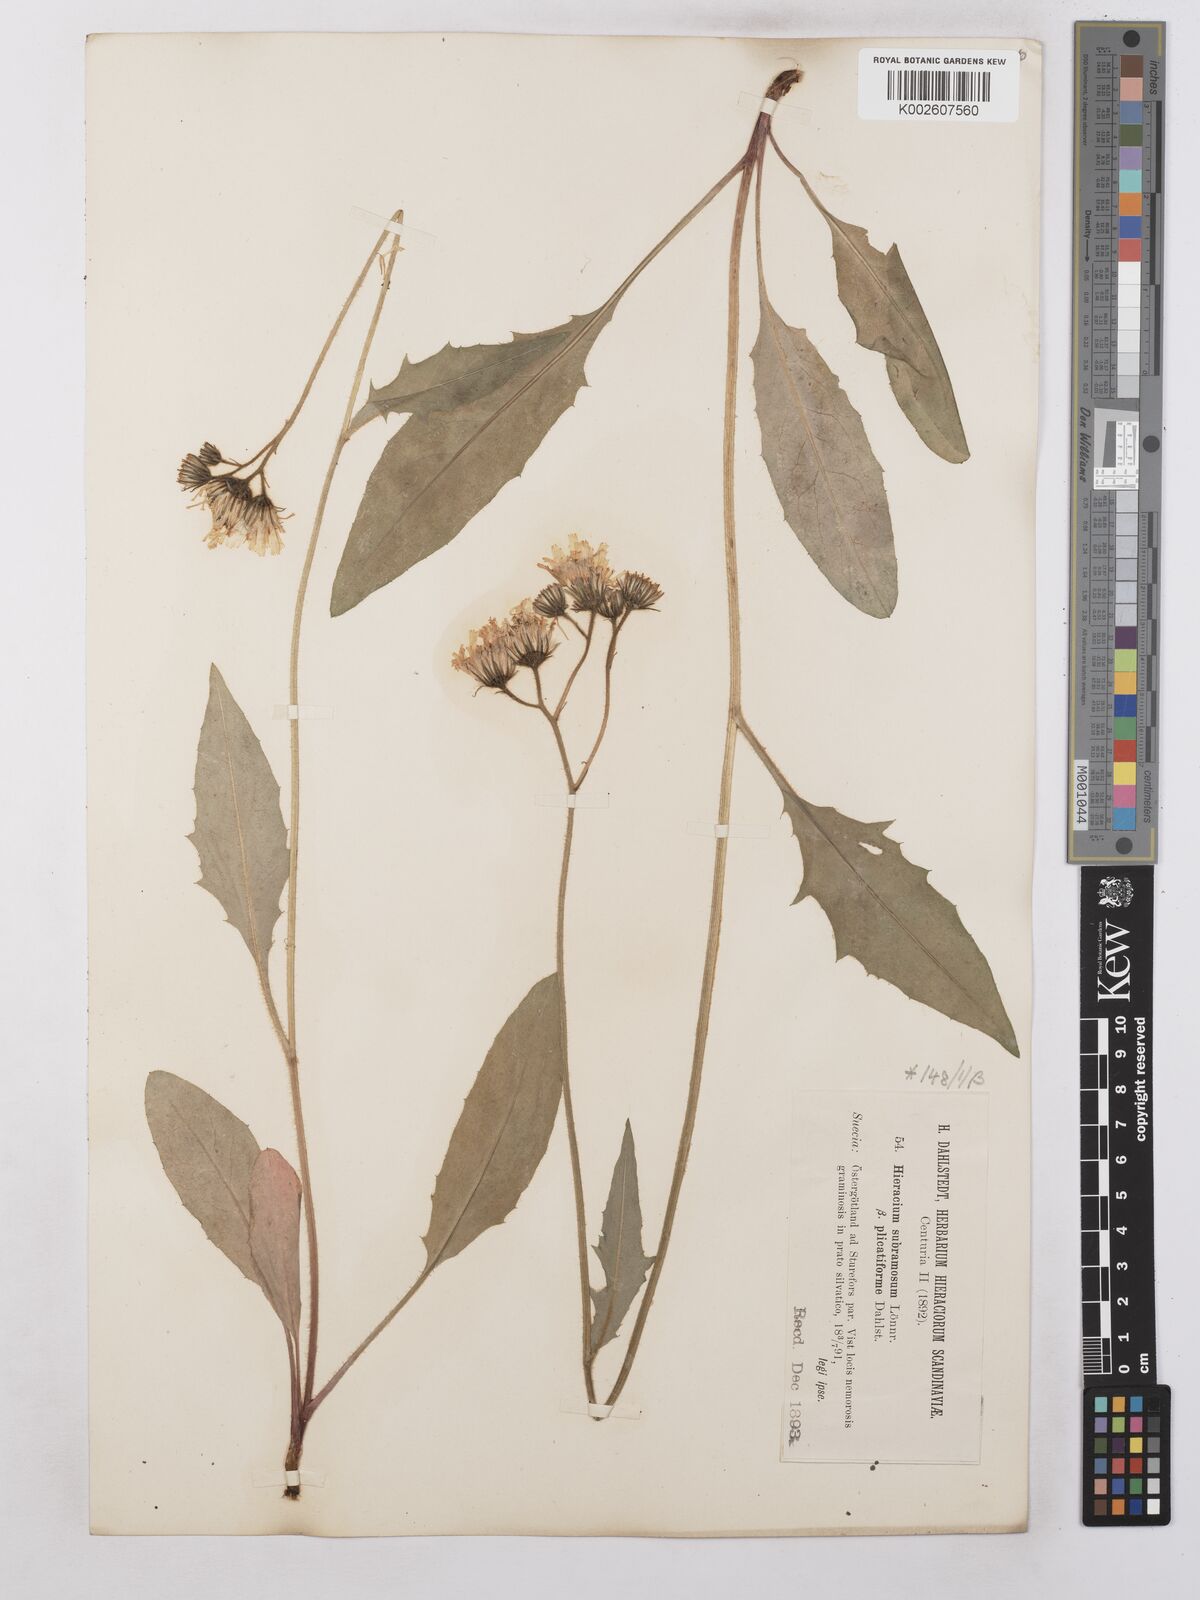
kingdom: Plantae
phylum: Tracheophyta
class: Magnoliopsida
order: Asterales
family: Asteraceae
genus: Hieracium
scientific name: Hieracium subramosum
